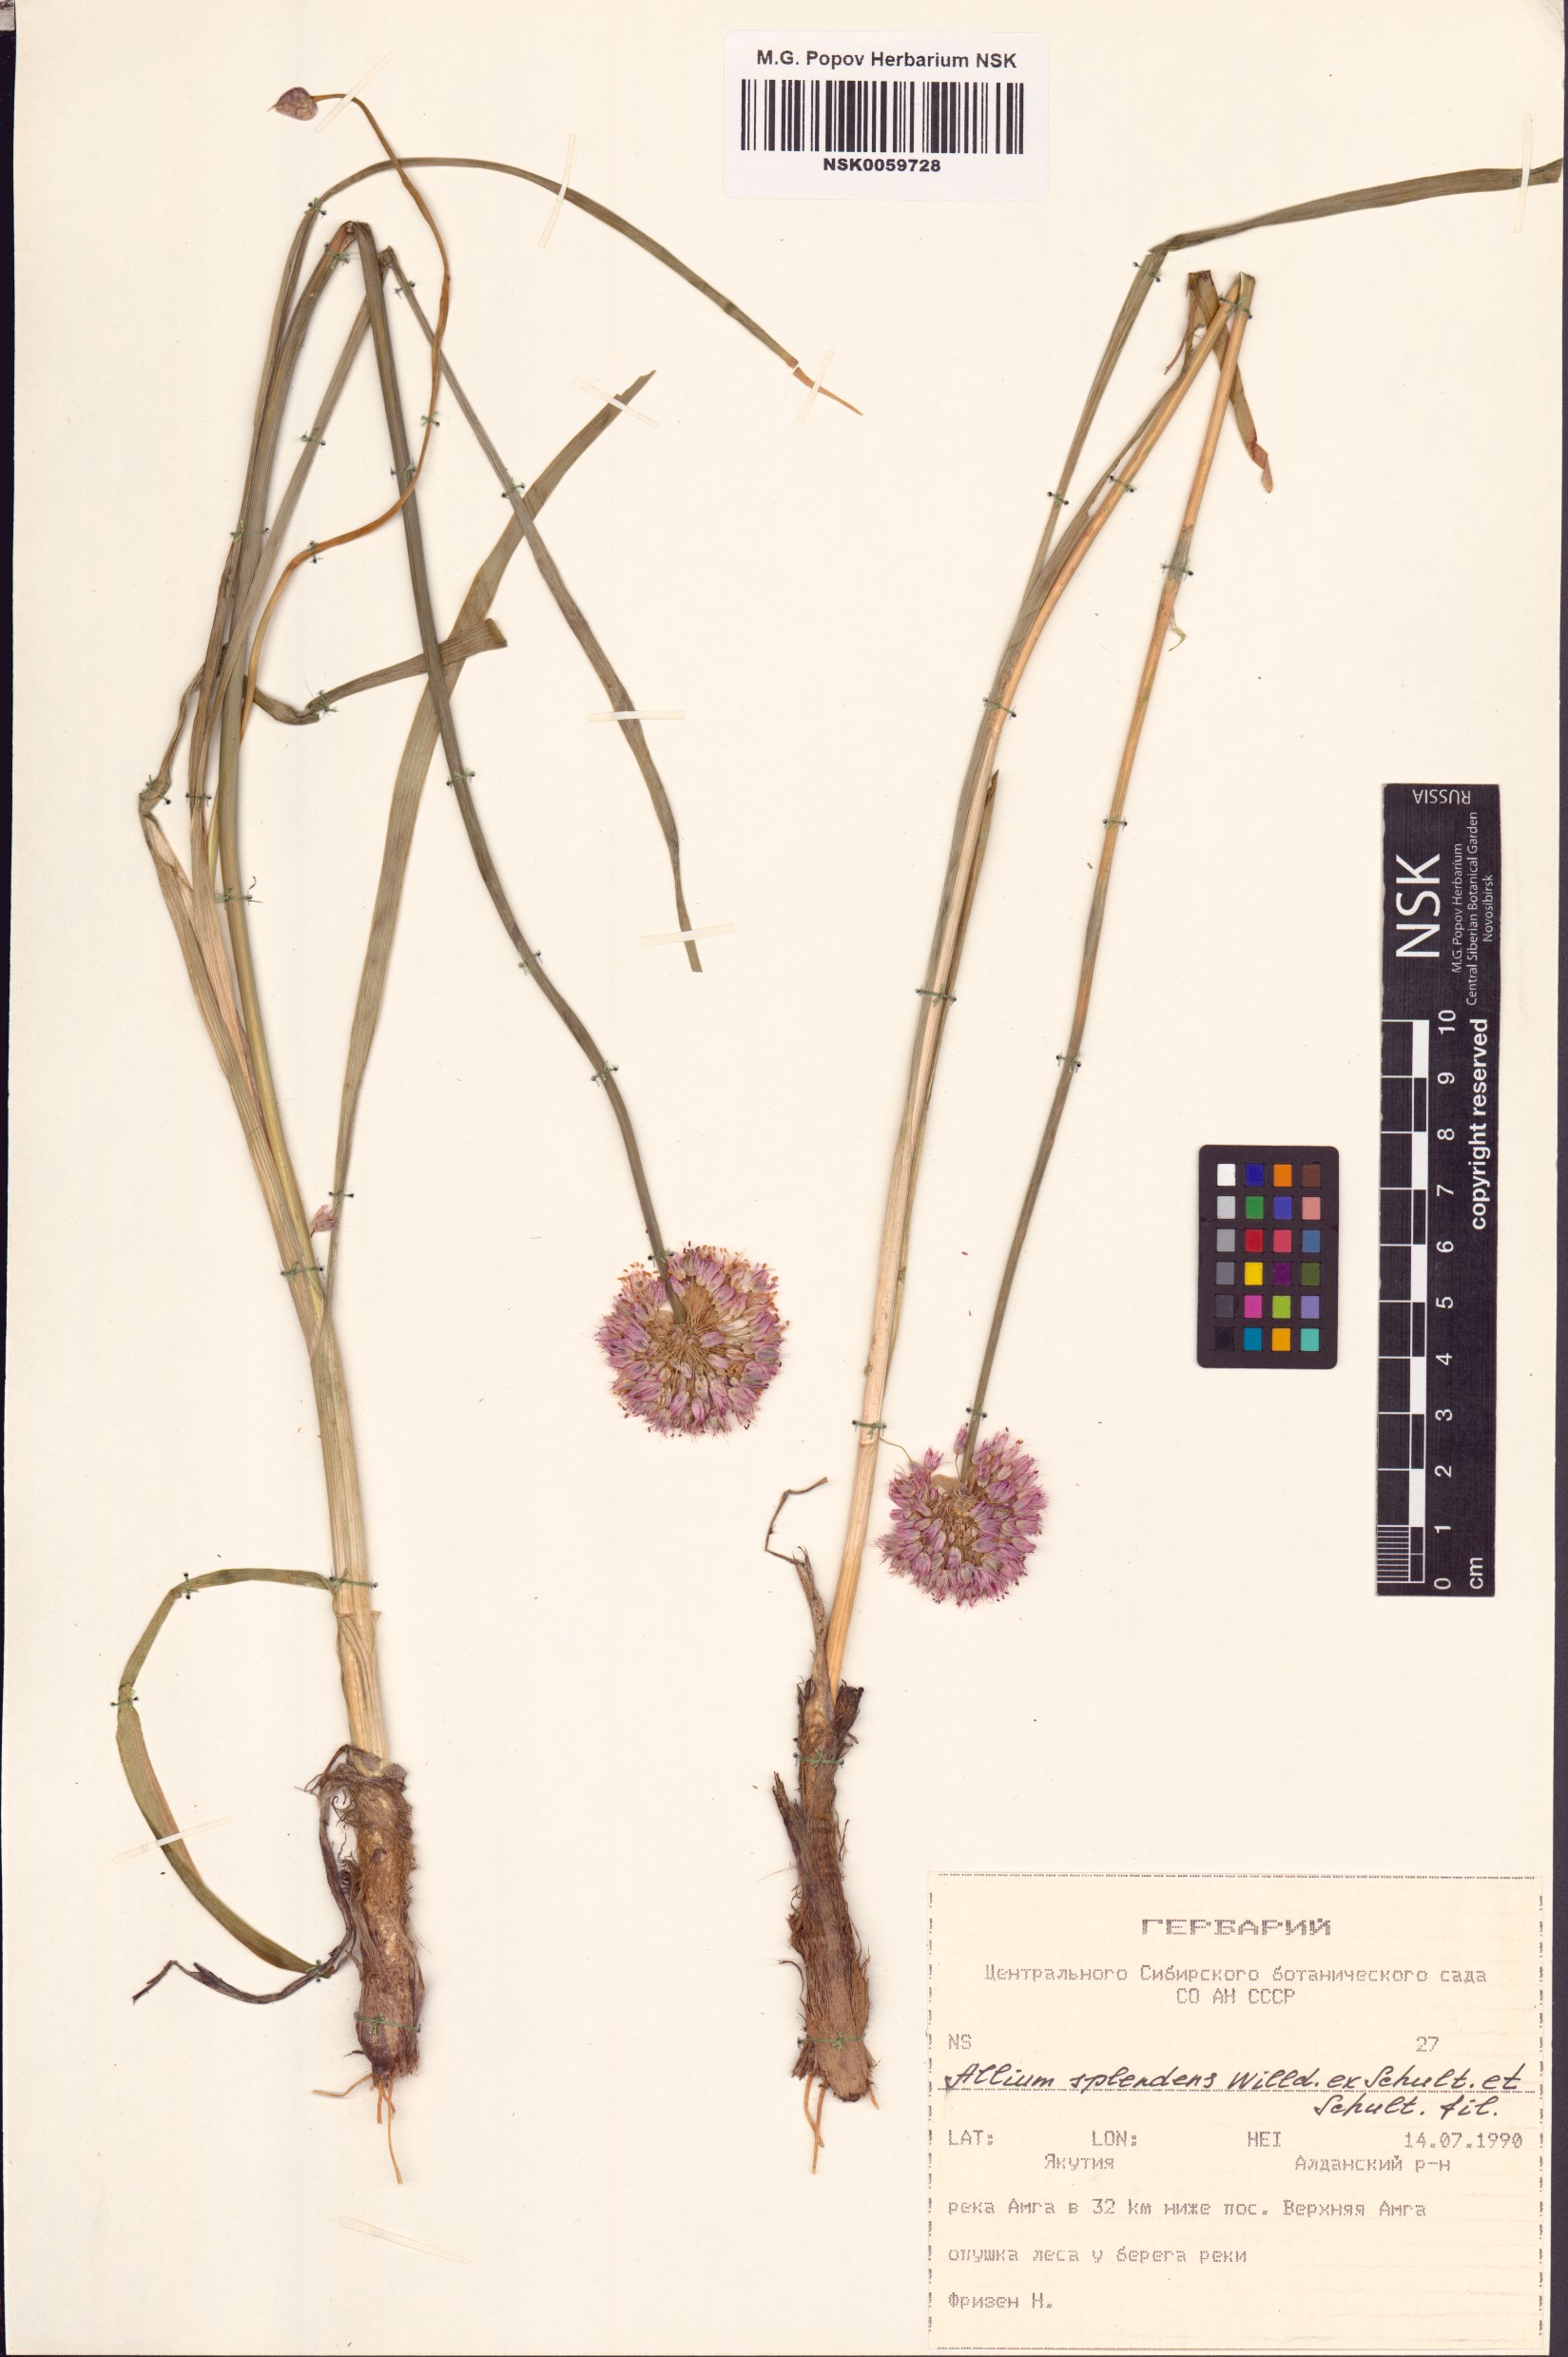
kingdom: Plantae
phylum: Tracheophyta
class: Liliopsida
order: Asparagales
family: Amaryllidaceae
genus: Allium
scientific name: Allium splendens
